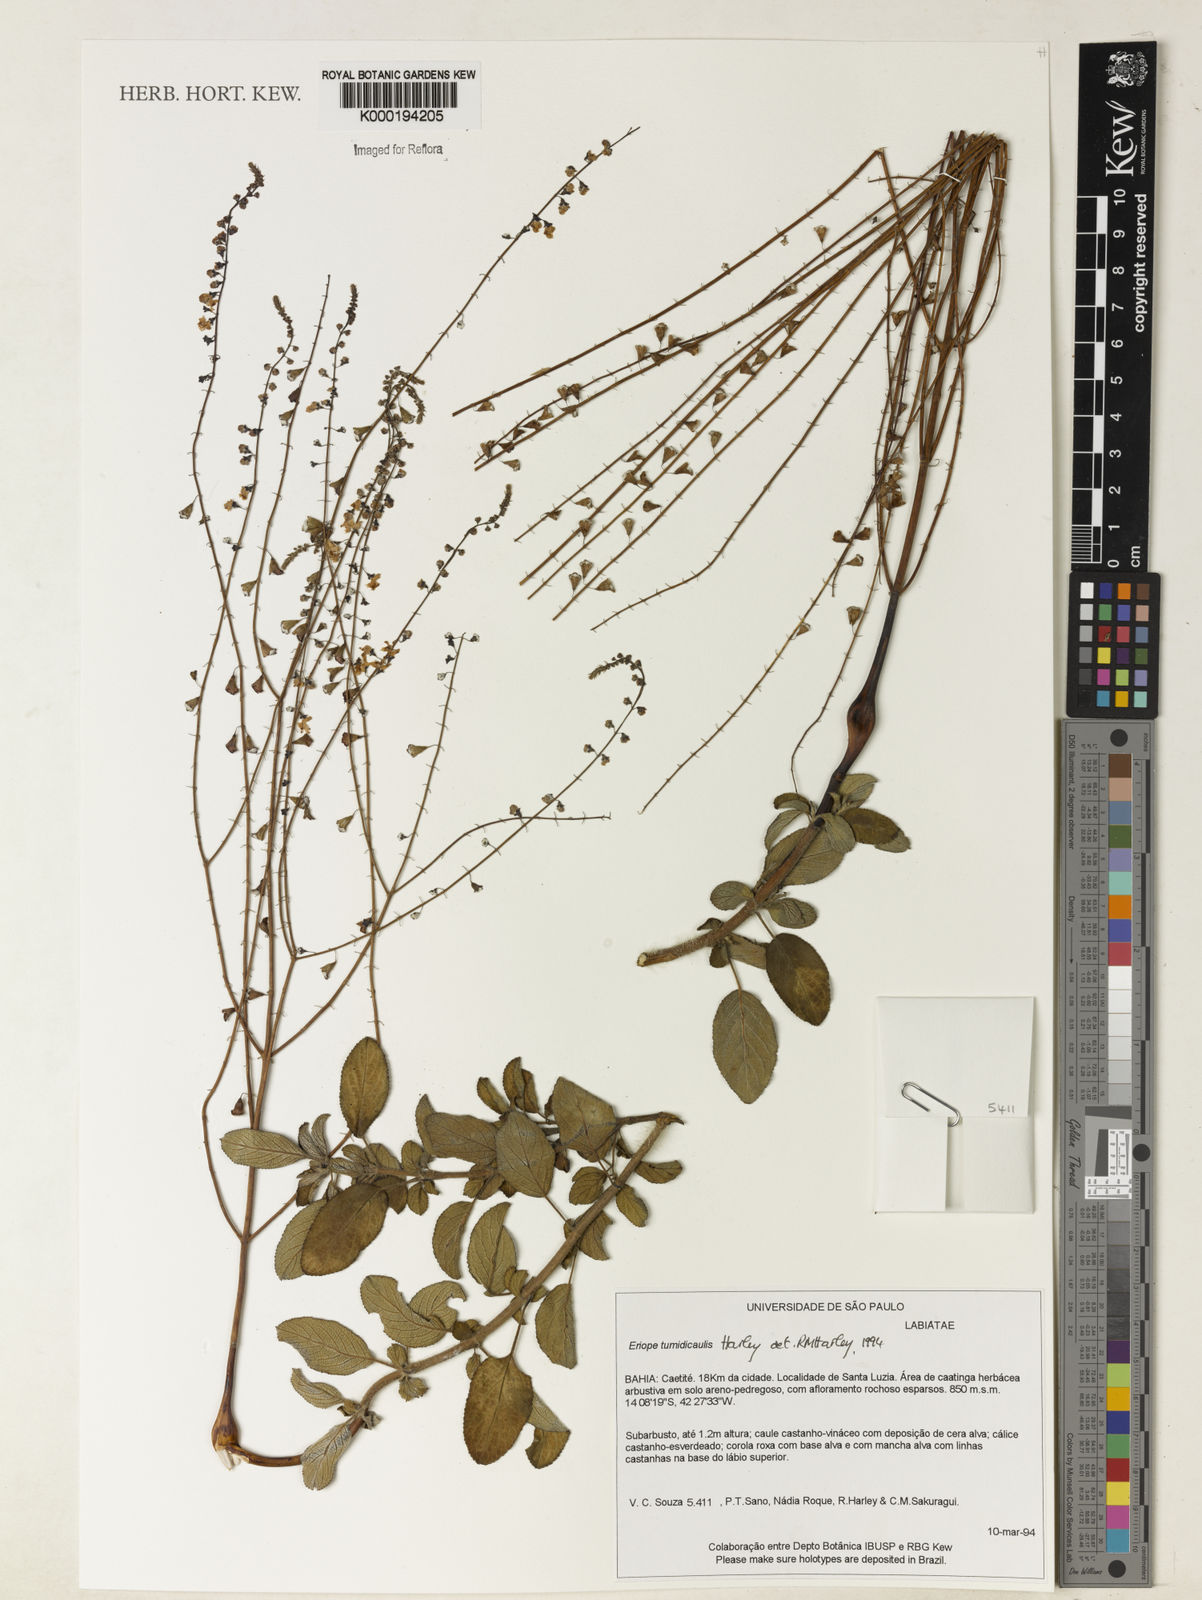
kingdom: Plantae
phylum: Tracheophyta
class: Magnoliopsida
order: Lamiales
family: Lamiaceae
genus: Eriope
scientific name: Eriope tumidicaulis
